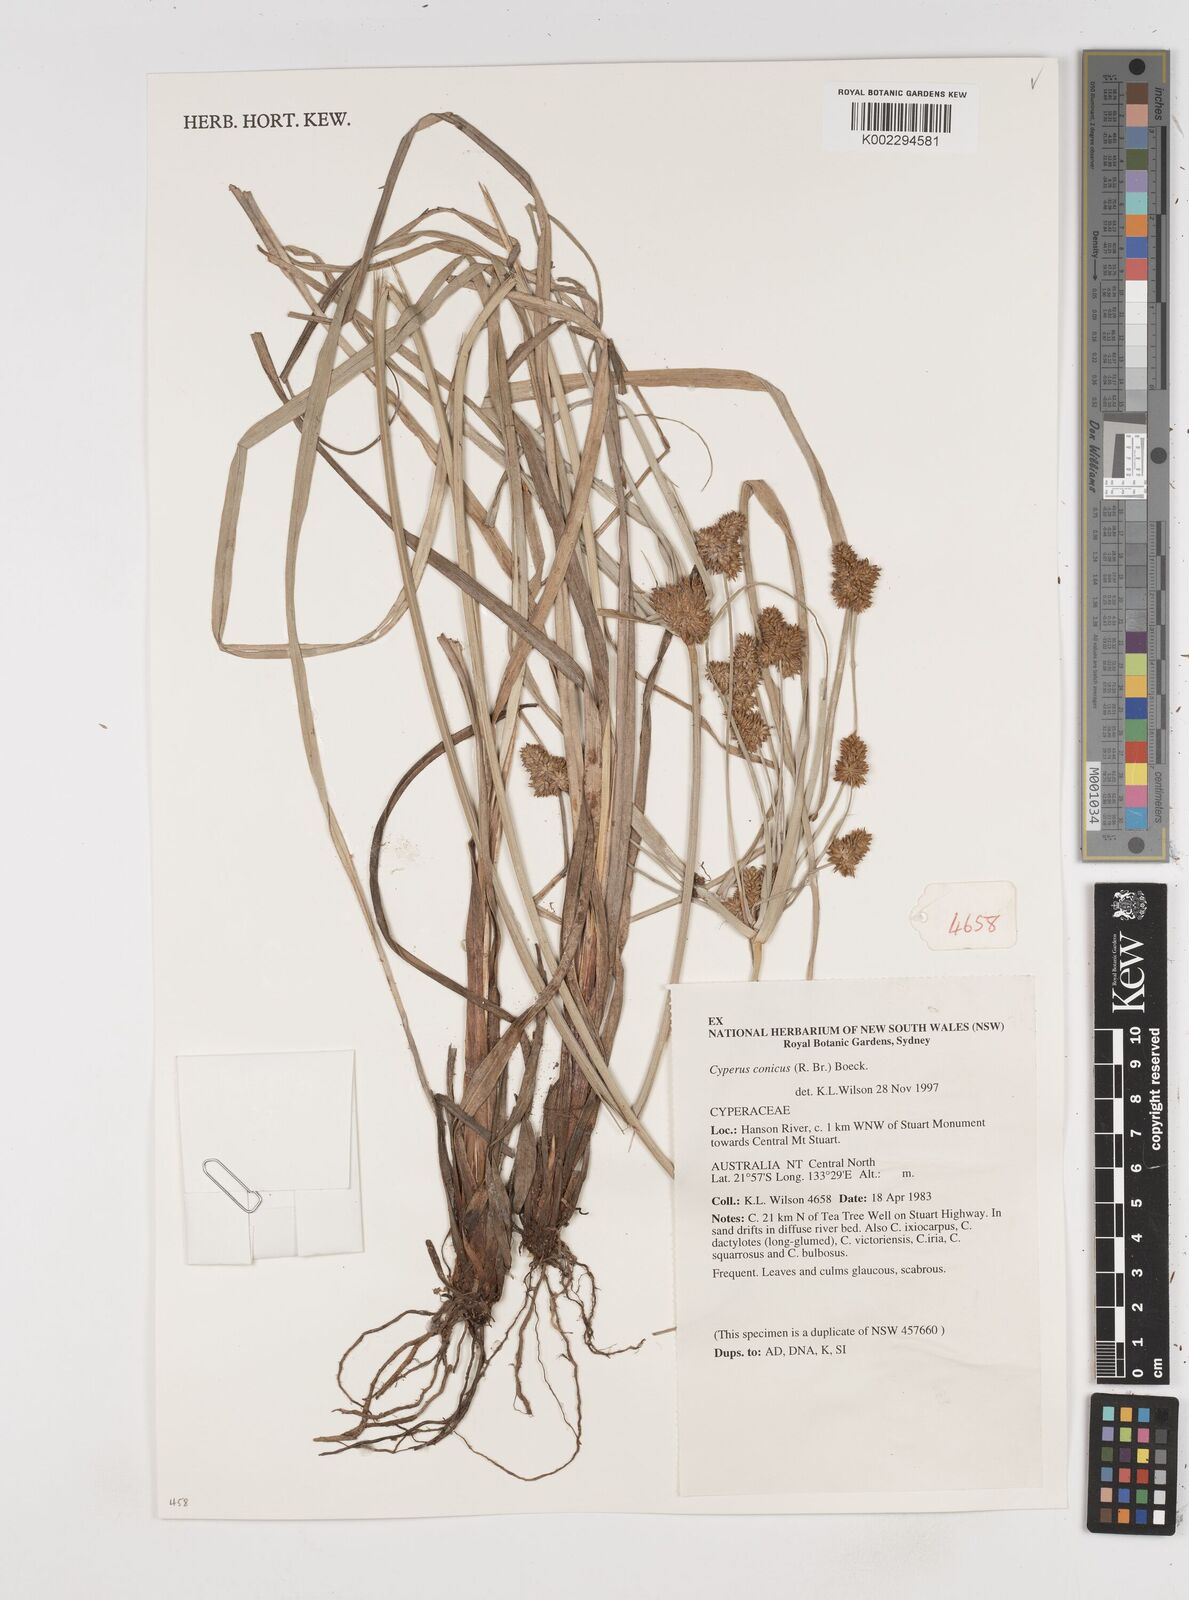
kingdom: Plantae
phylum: Tracheophyta
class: Liliopsida
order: Poales
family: Cyperaceae
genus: Cyperus
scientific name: Cyperus conicus
